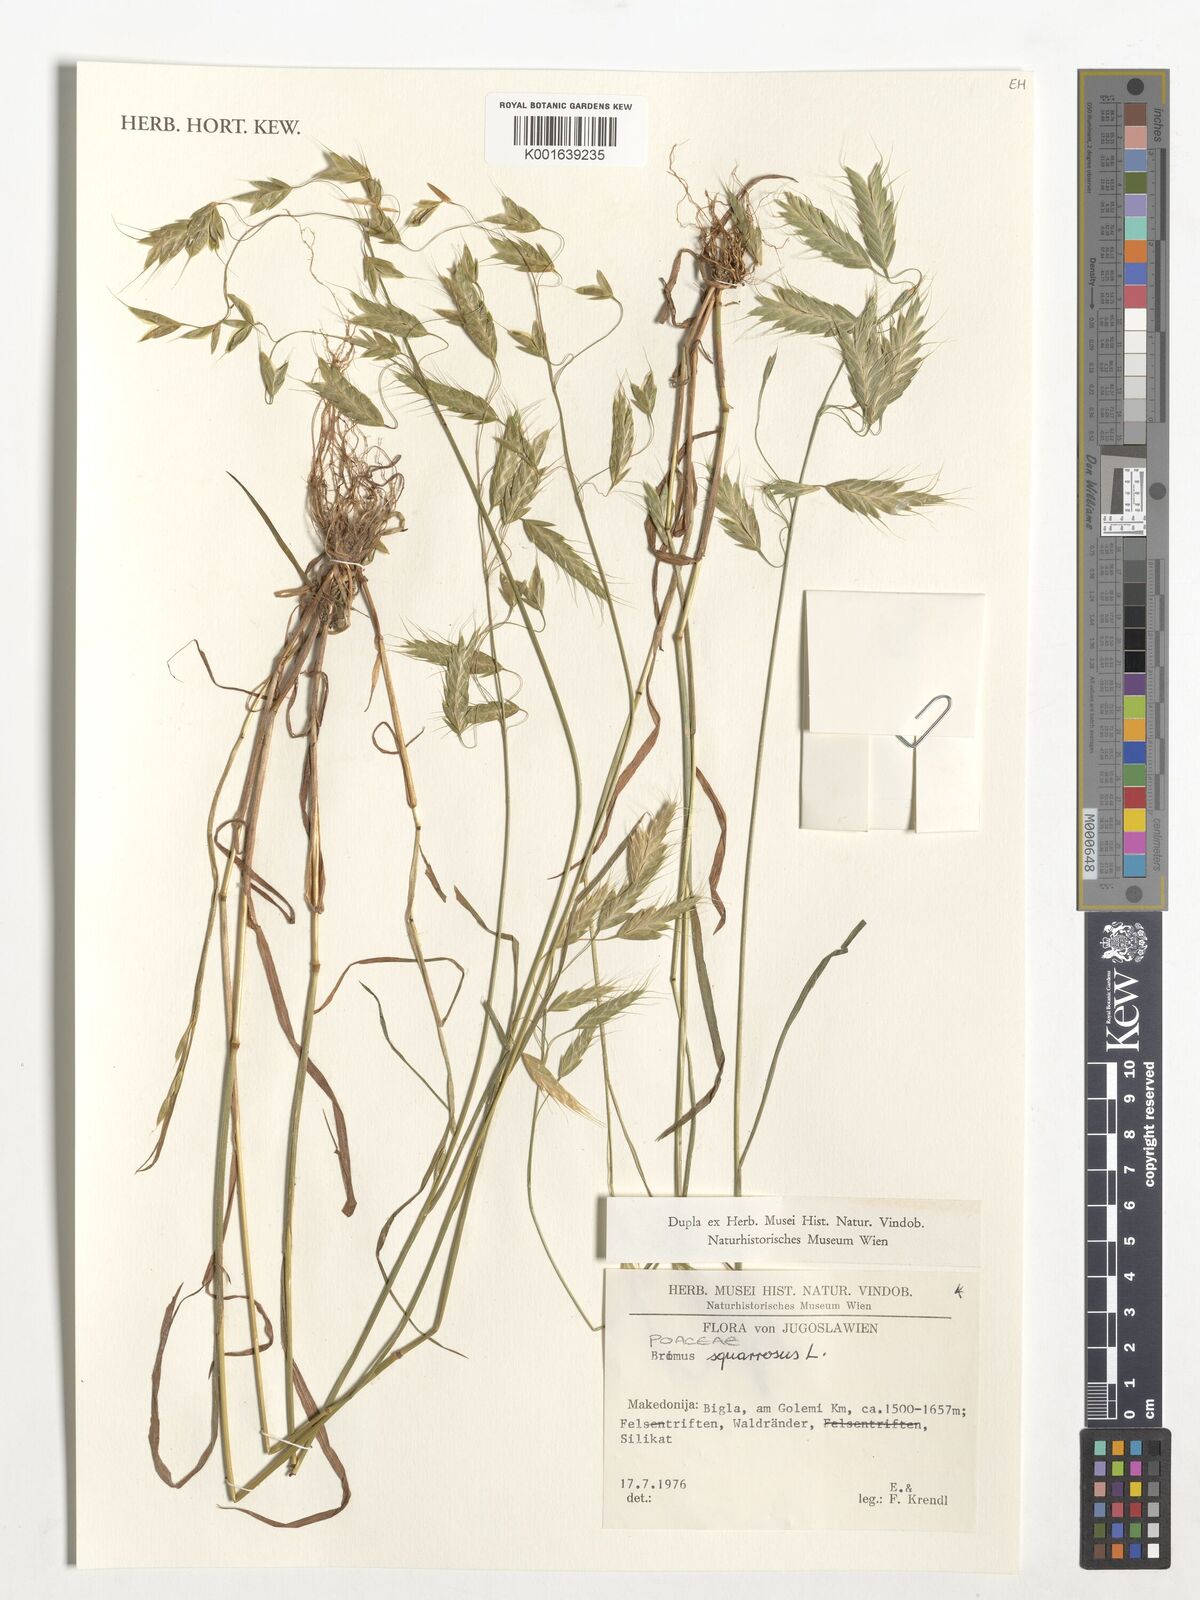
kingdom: Plantae
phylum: Tracheophyta
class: Liliopsida
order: Poales
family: Poaceae
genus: Bromus
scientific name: Bromus squarrosus
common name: Corn brome
